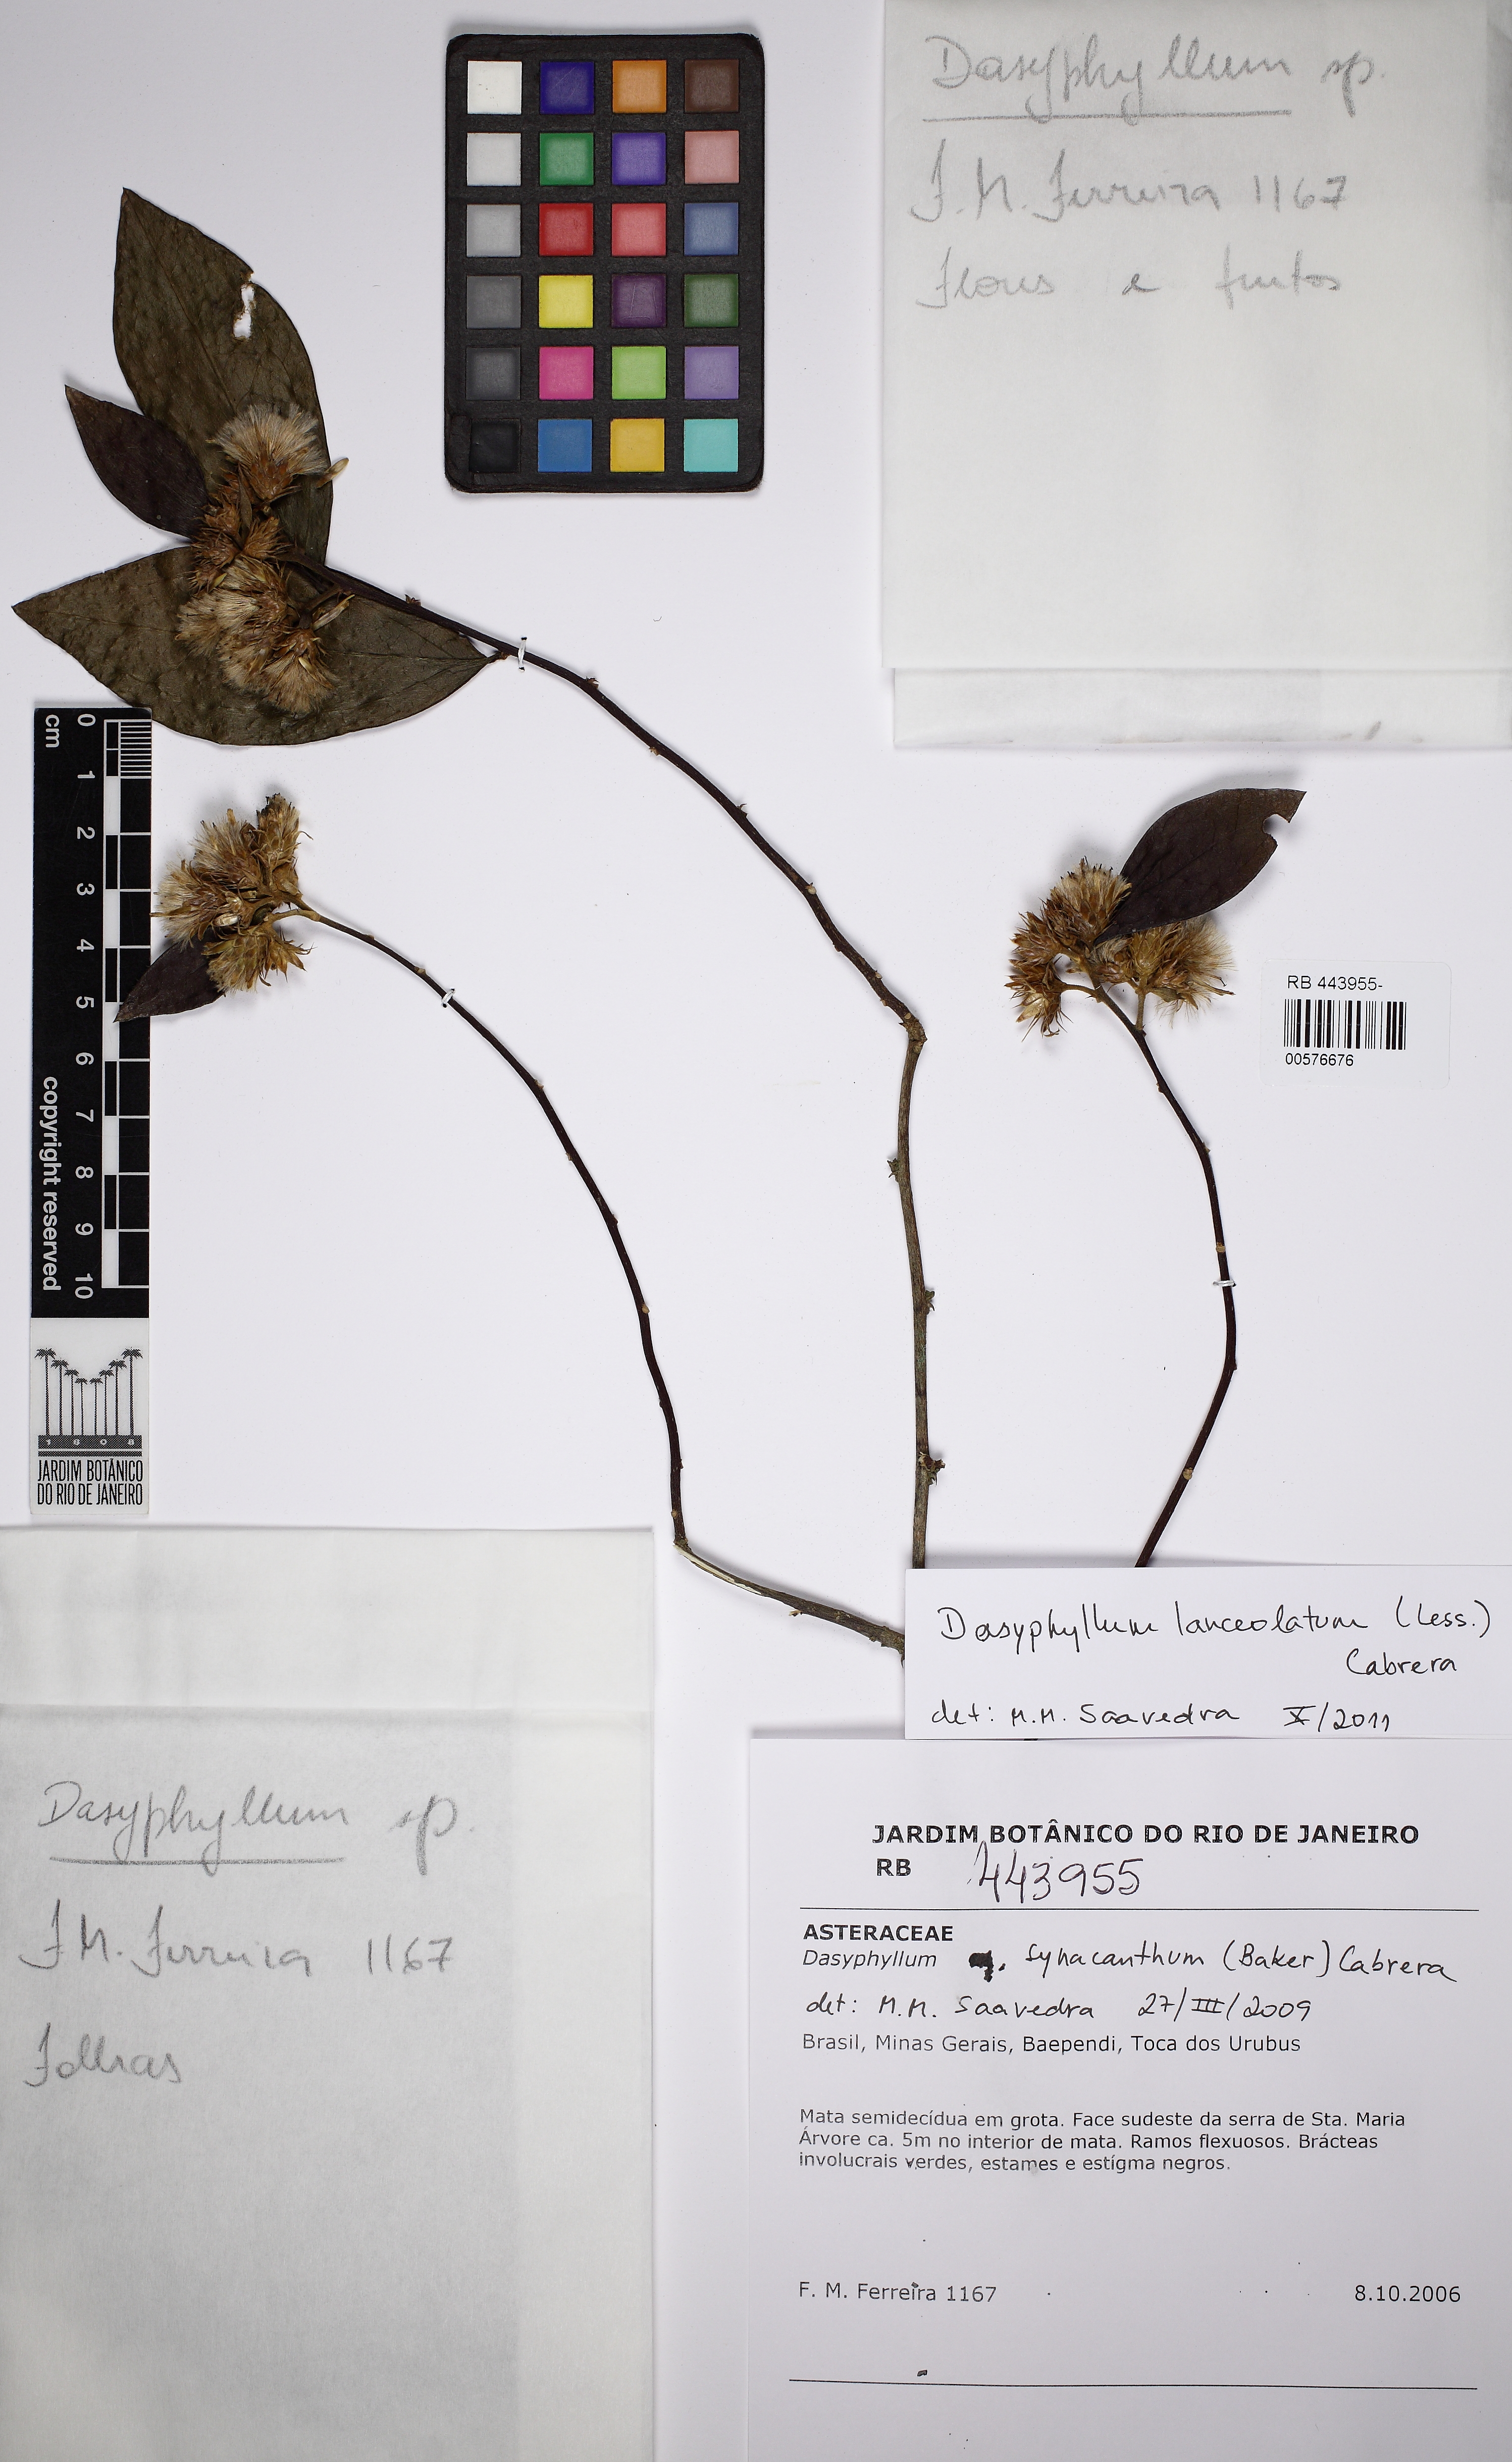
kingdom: Plantae
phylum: Tracheophyta
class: Magnoliopsida
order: Asterales
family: Asteraceae
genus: Dasyphyllum
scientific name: Dasyphyllum lanceolatum
